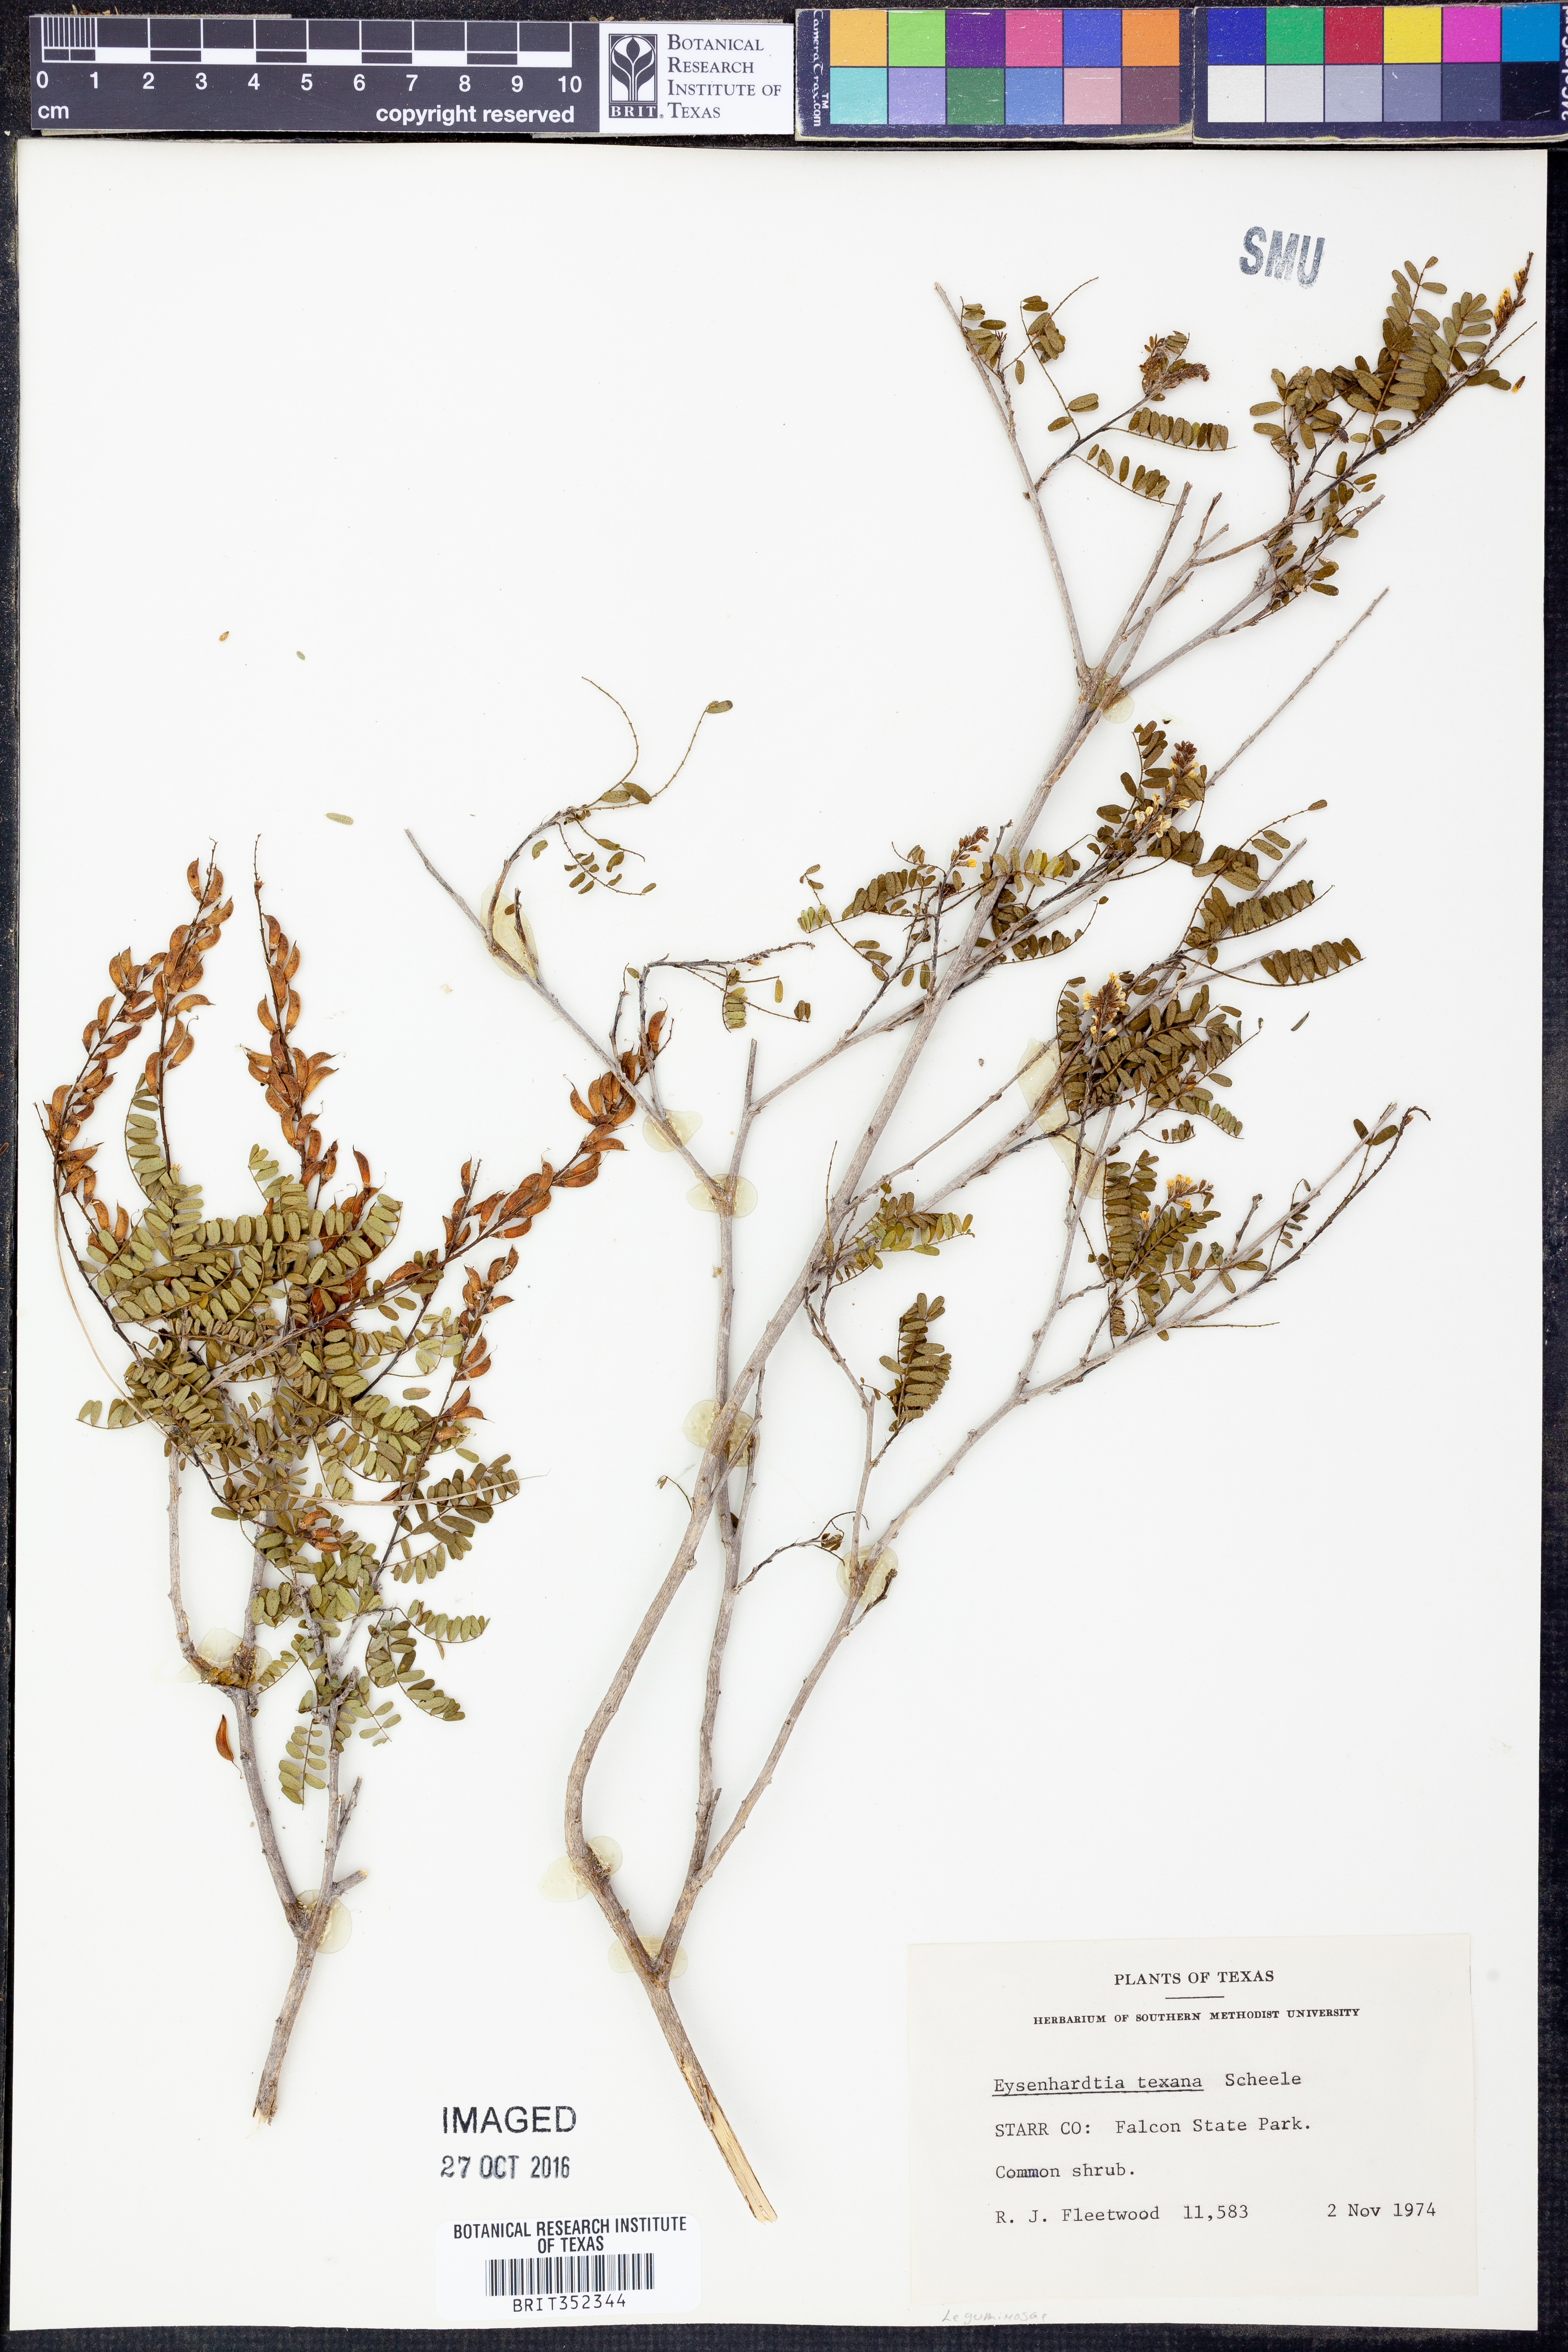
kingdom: Plantae
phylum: Tracheophyta
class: Magnoliopsida
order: Fabales
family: Fabaceae
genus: Eysenhardtia
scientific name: Eysenhardtia texana
